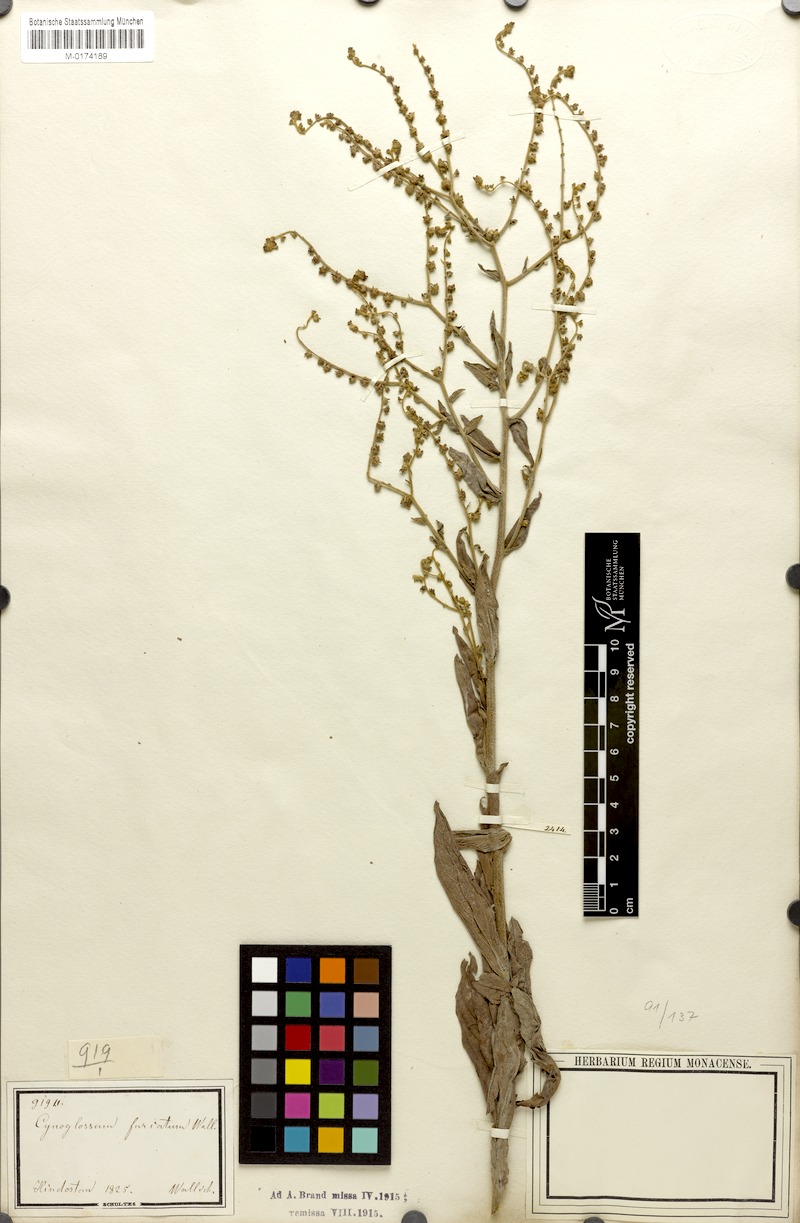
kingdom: Plantae
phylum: Tracheophyta
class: Magnoliopsida
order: Boraginales
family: Boraginaceae
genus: Rochelia
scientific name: Rochelia zeylanica
